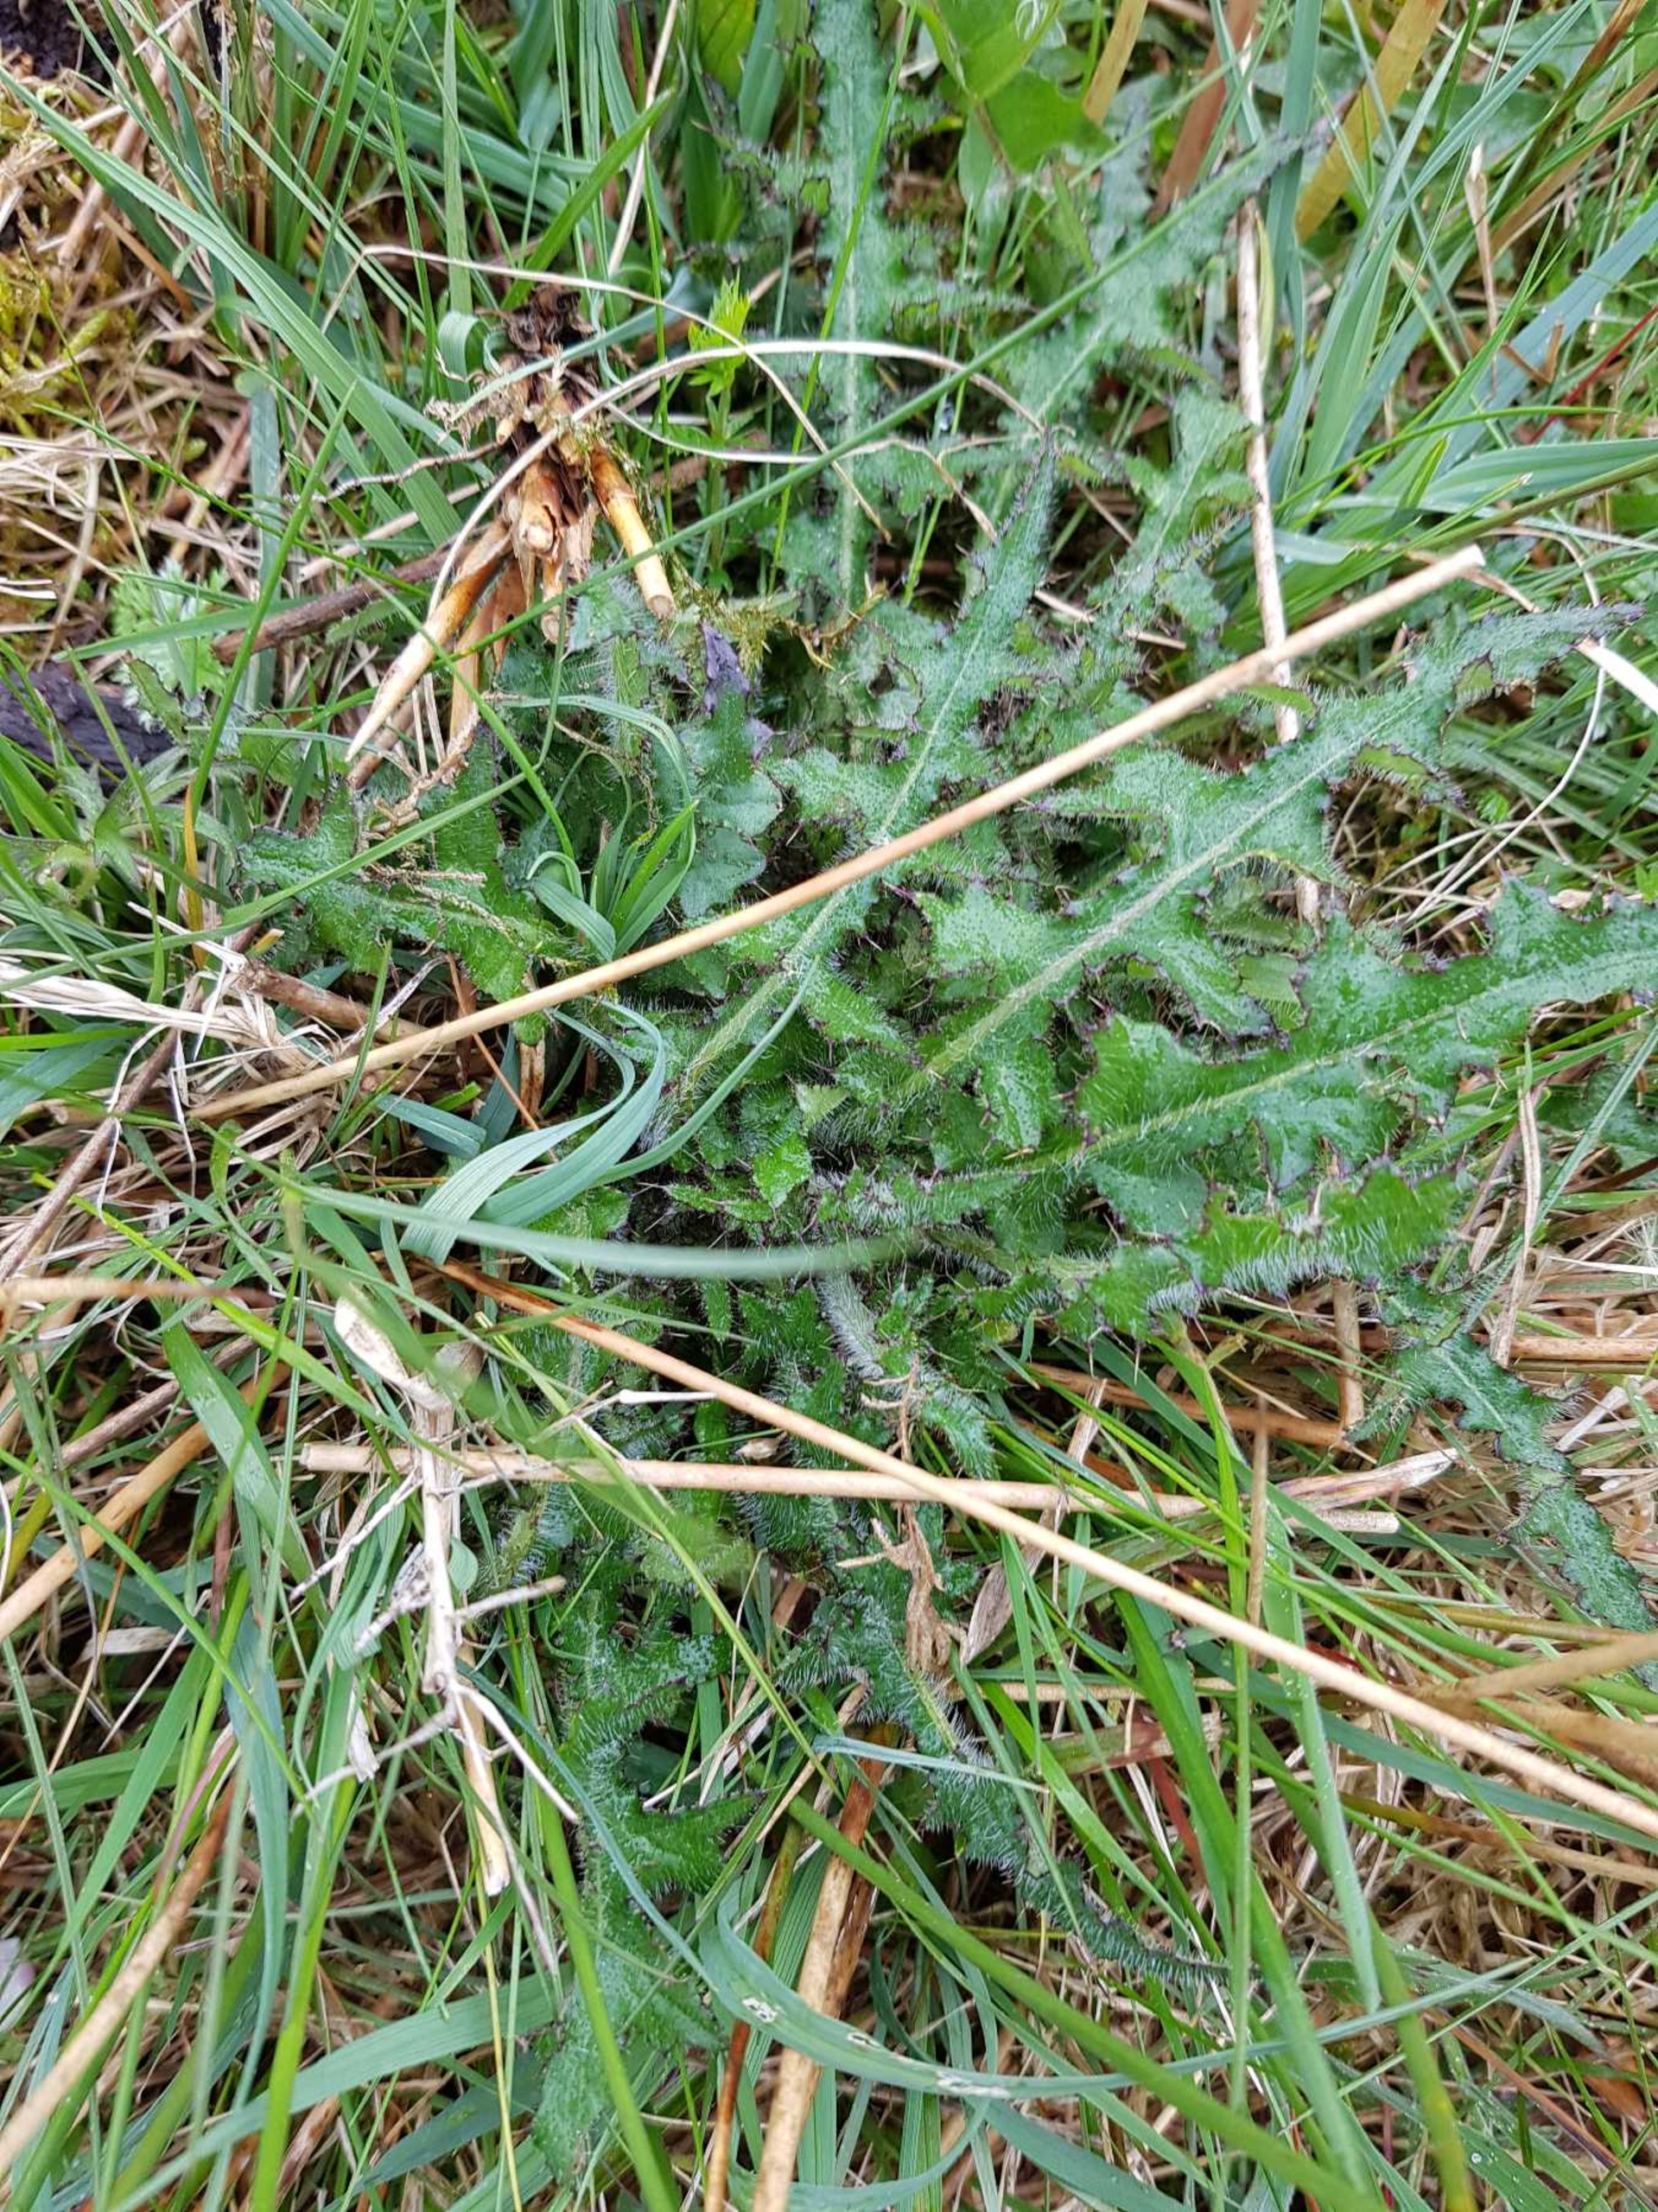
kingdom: Plantae
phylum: Tracheophyta
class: Magnoliopsida
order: Asterales
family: Asteraceae
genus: Cirsium
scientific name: Cirsium palustre
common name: Kær-tidsel
